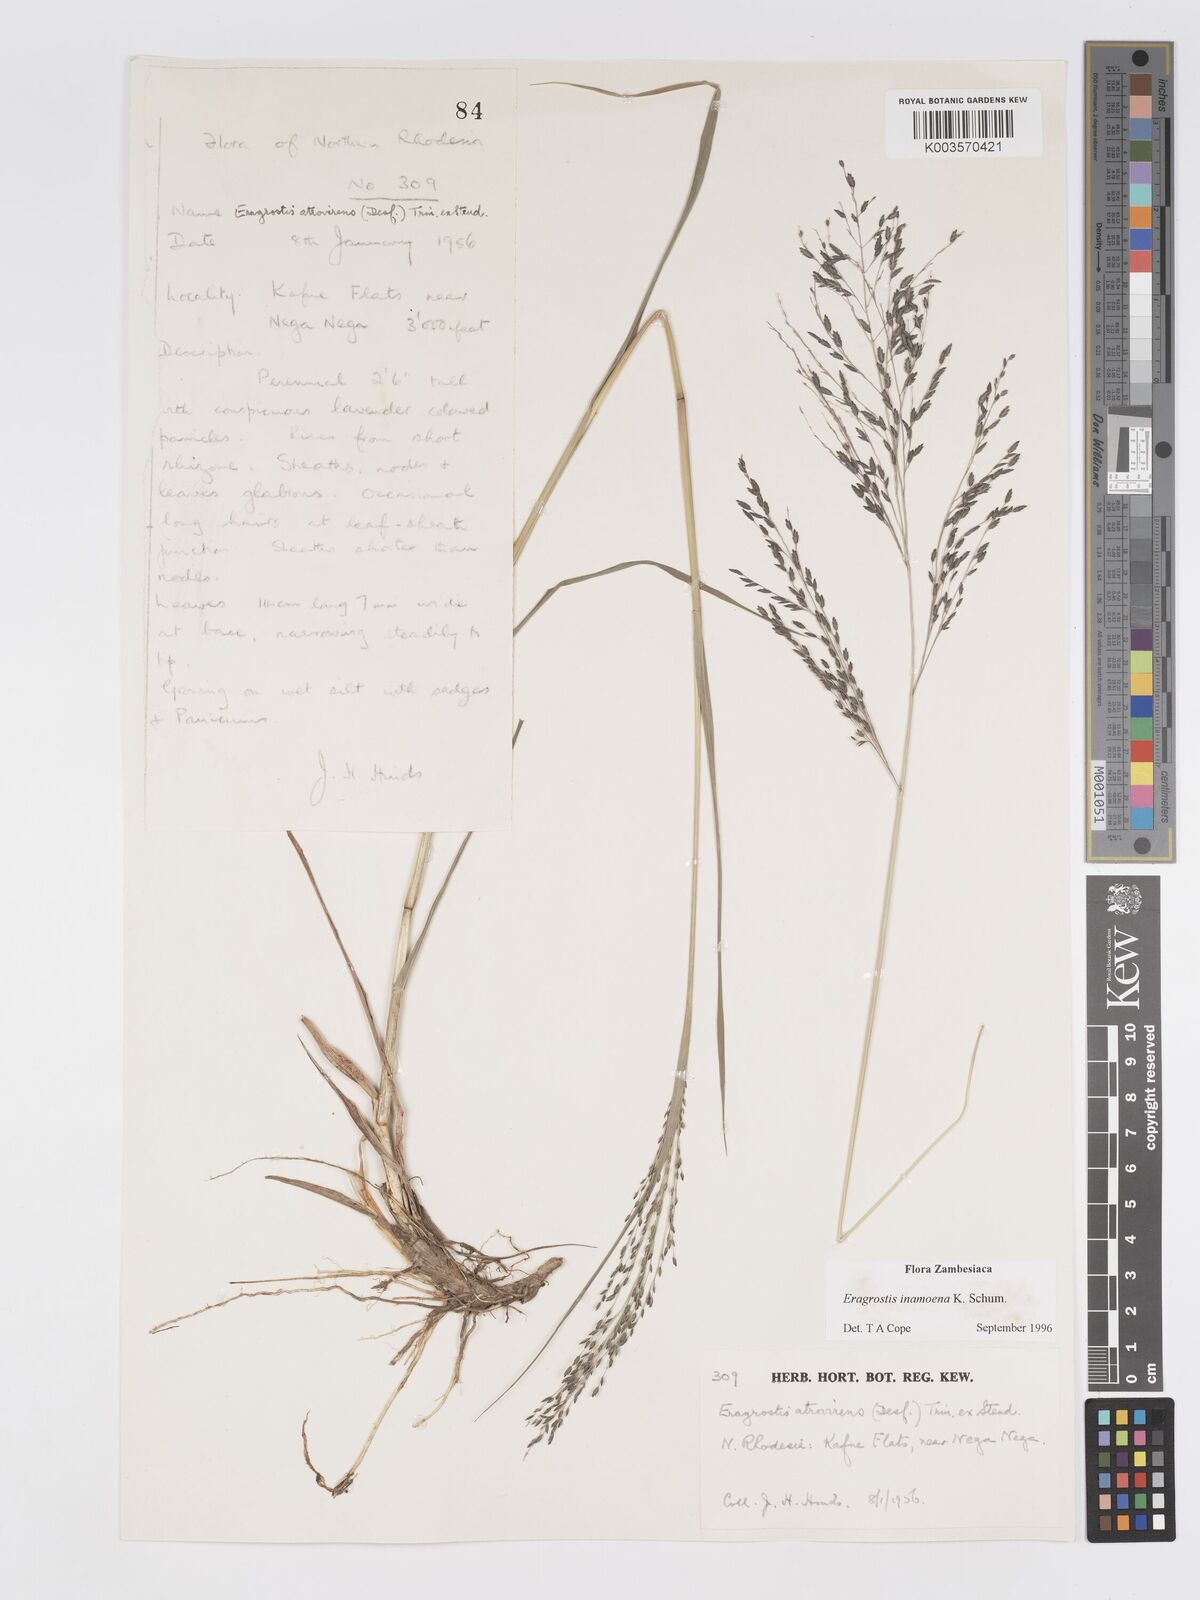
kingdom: Plantae
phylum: Tracheophyta
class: Liliopsida
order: Poales
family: Poaceae
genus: Eragrostis
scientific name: Eragrostis inamoena
